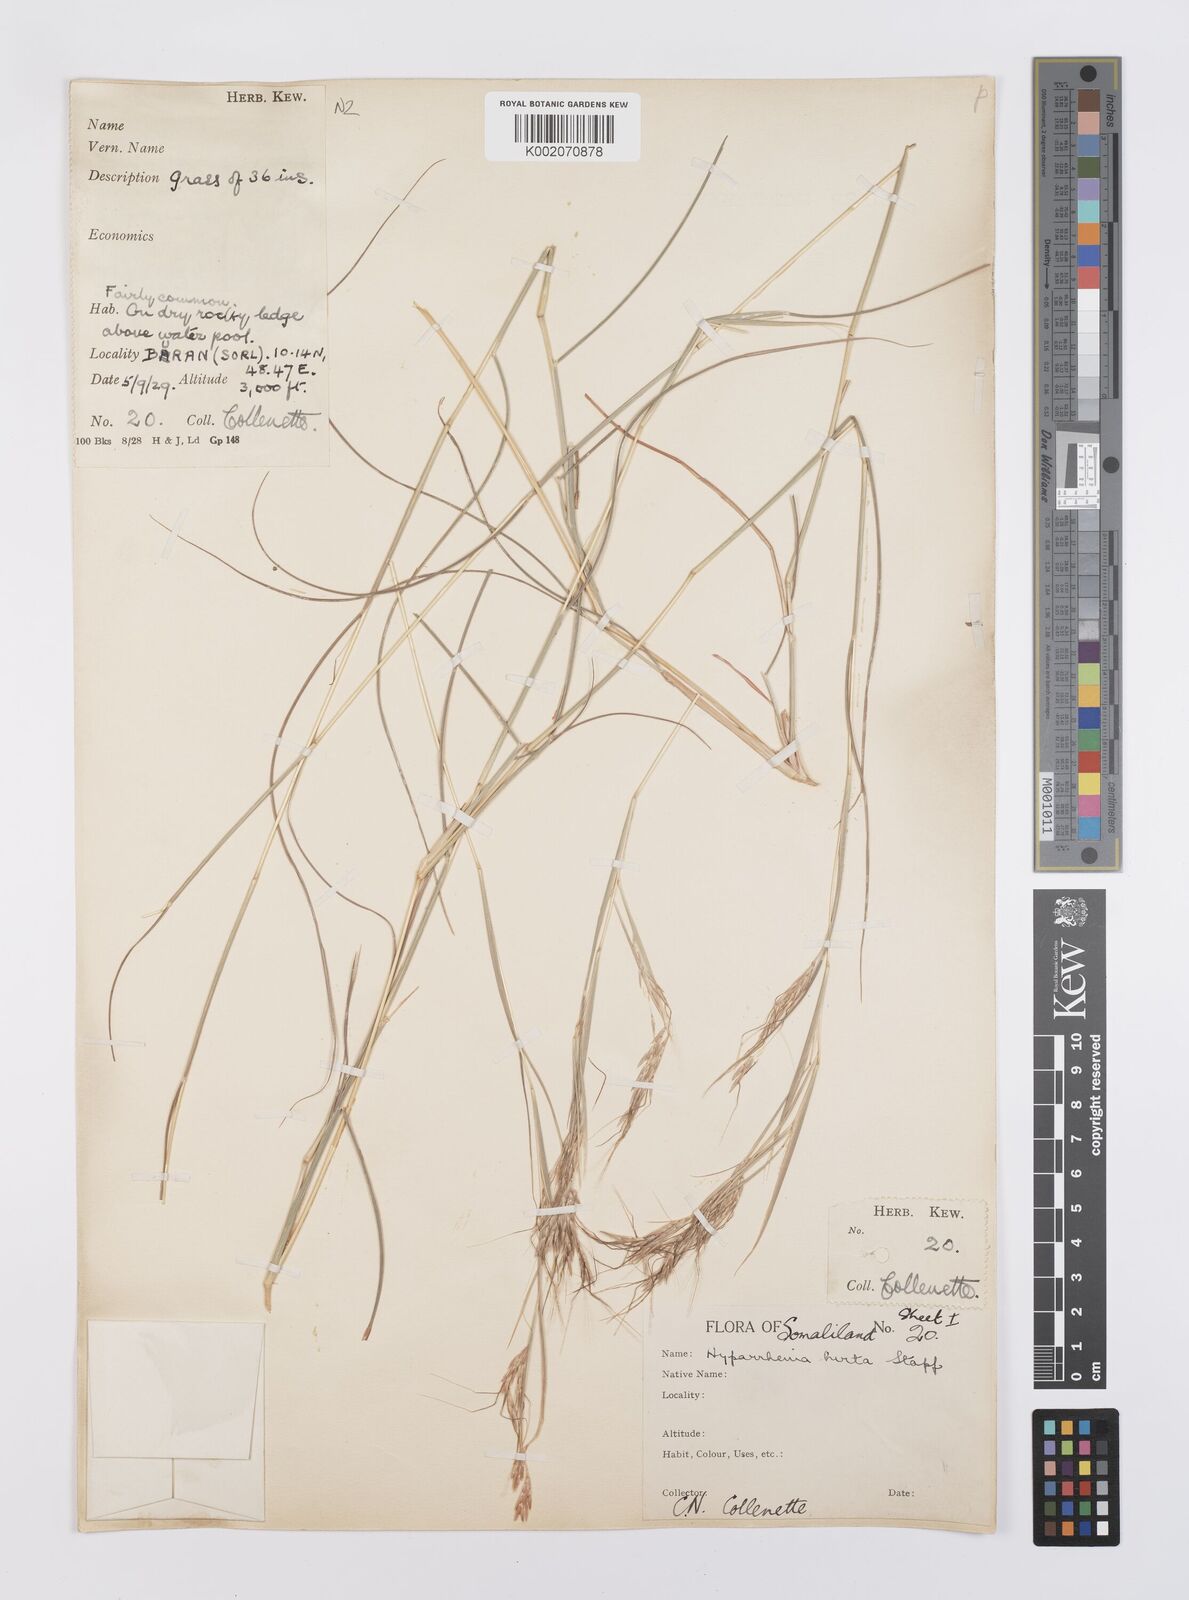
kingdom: Plantae
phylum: Tracheophyta
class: Liliopsida
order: Poales
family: Poaceae
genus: Hyparrhenia
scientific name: Hyparrhenia hirta
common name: Thatching grass
